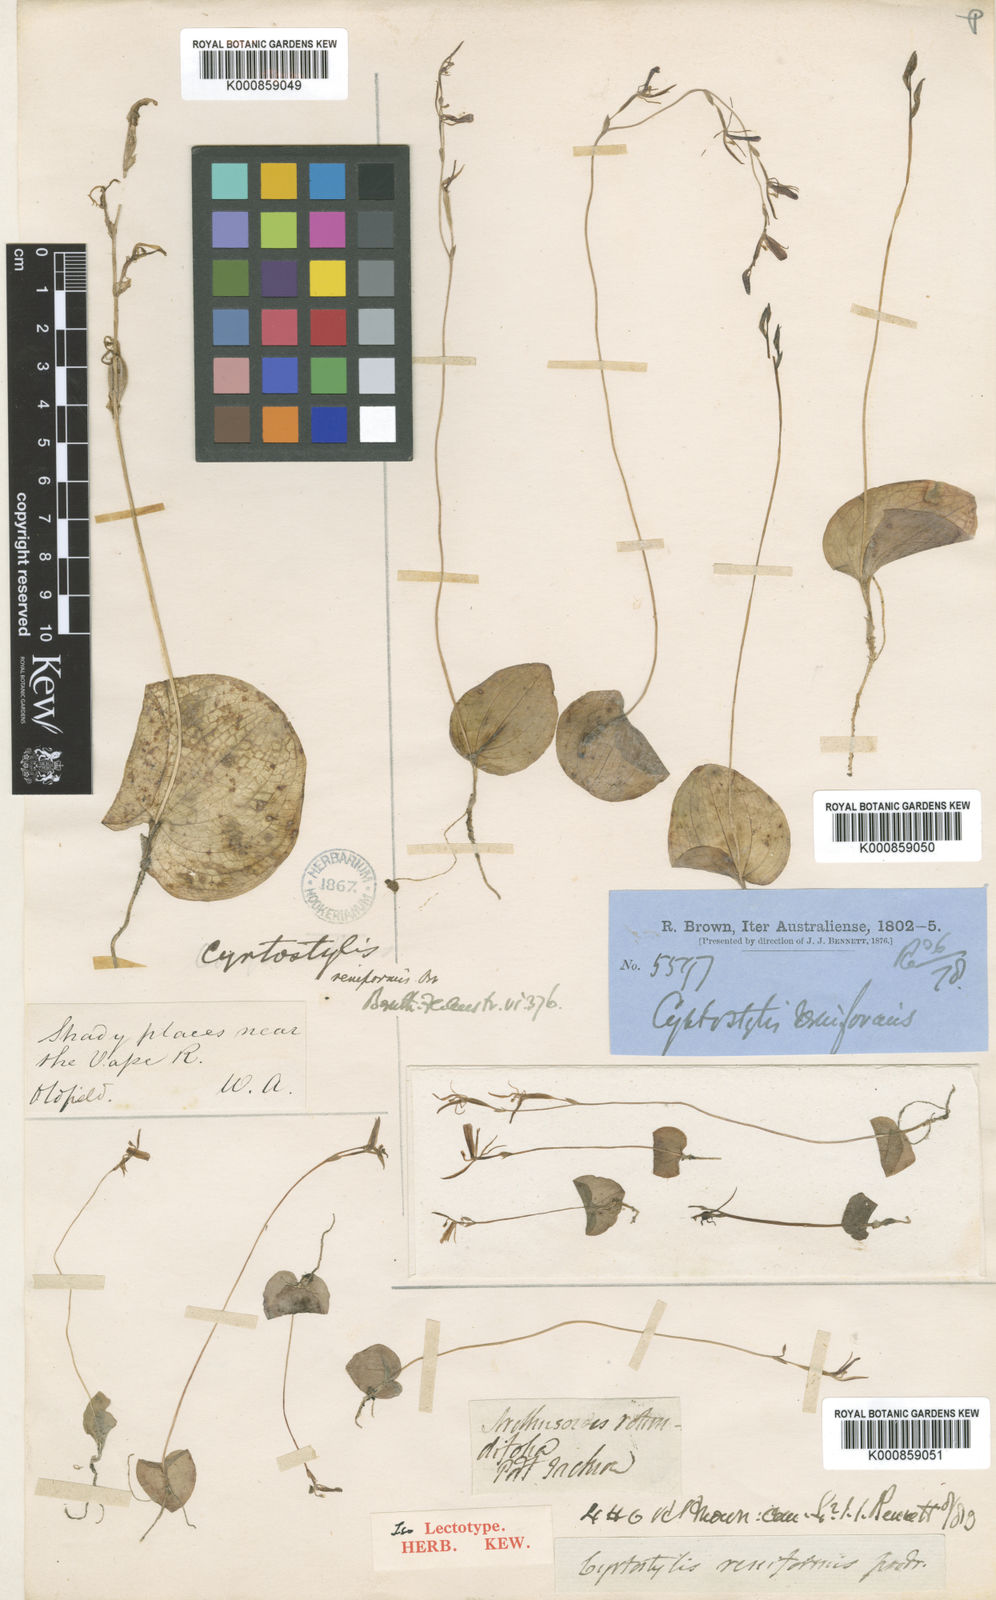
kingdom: Plantae
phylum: Tracheophyta
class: Liliopsida
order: Asparagales
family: Orchidaceae
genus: Cyrtostylis
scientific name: Cyrtostylis reniformis
